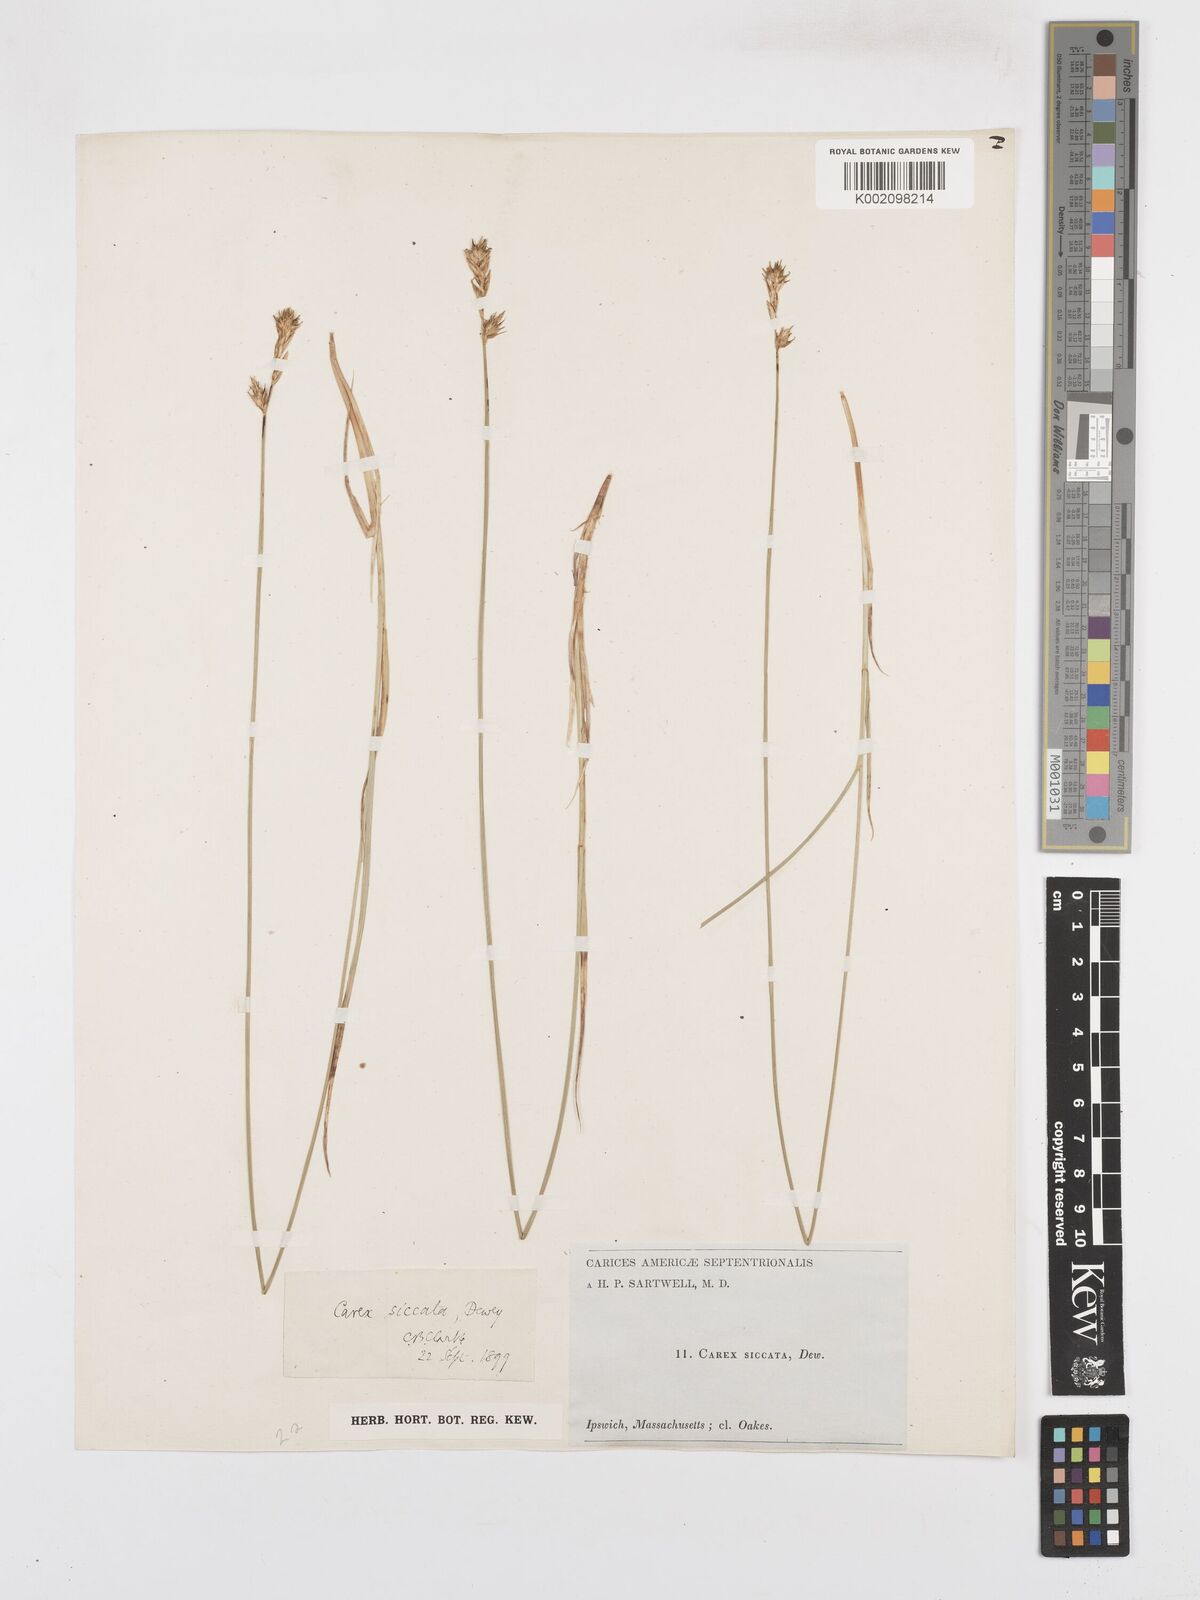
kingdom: Plantae
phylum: Tracheophyta
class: Liliopsida
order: Poales
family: Cyperaceae
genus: Carex
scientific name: Carex foenea
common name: Bronze sedge
